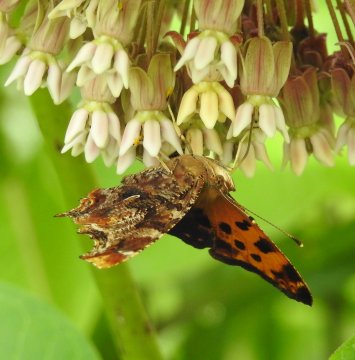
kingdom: Animalia
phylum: Arthropoda
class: Insecta
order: Lepidoptera
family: Nymphalidae
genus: Polygonia
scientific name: Polygonia comma
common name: Eastern Comma
